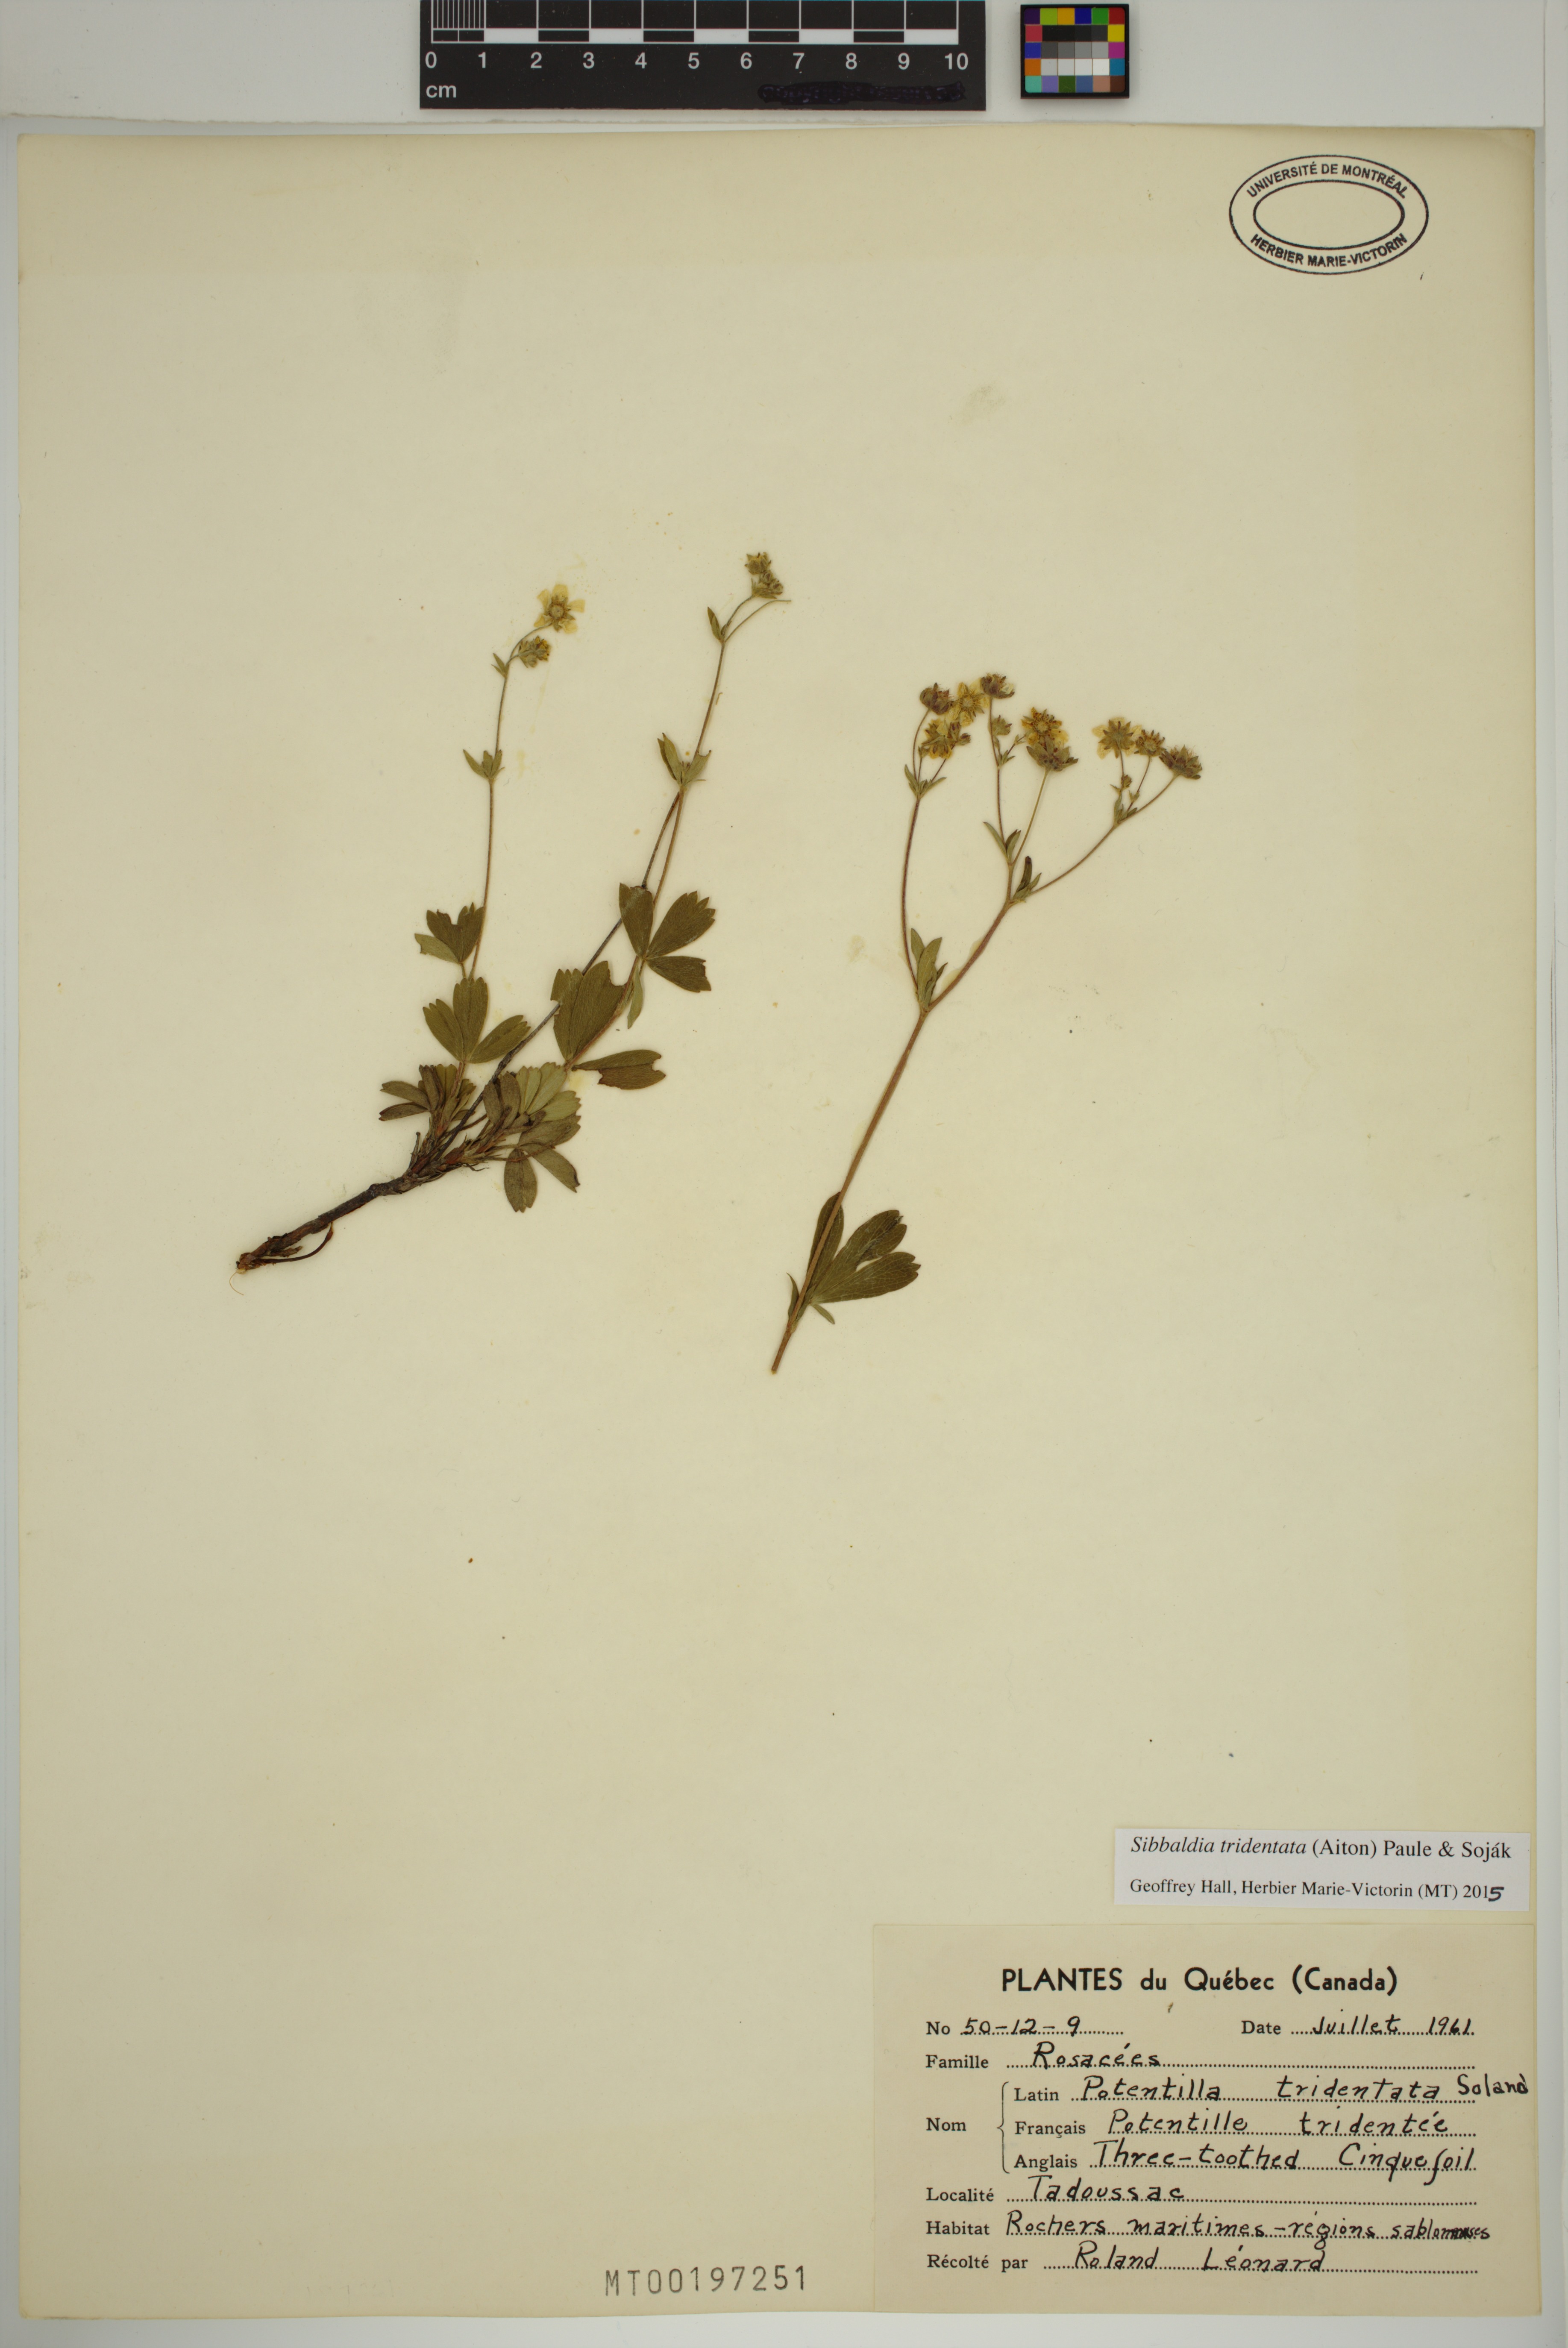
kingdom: Plantae
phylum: Tracheophyta
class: Magnoliopsida
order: Rosales
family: Rosaceae
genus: Sibbaldia
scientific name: Sibbaldia tridentata
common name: Three-toothed cinquefoil
